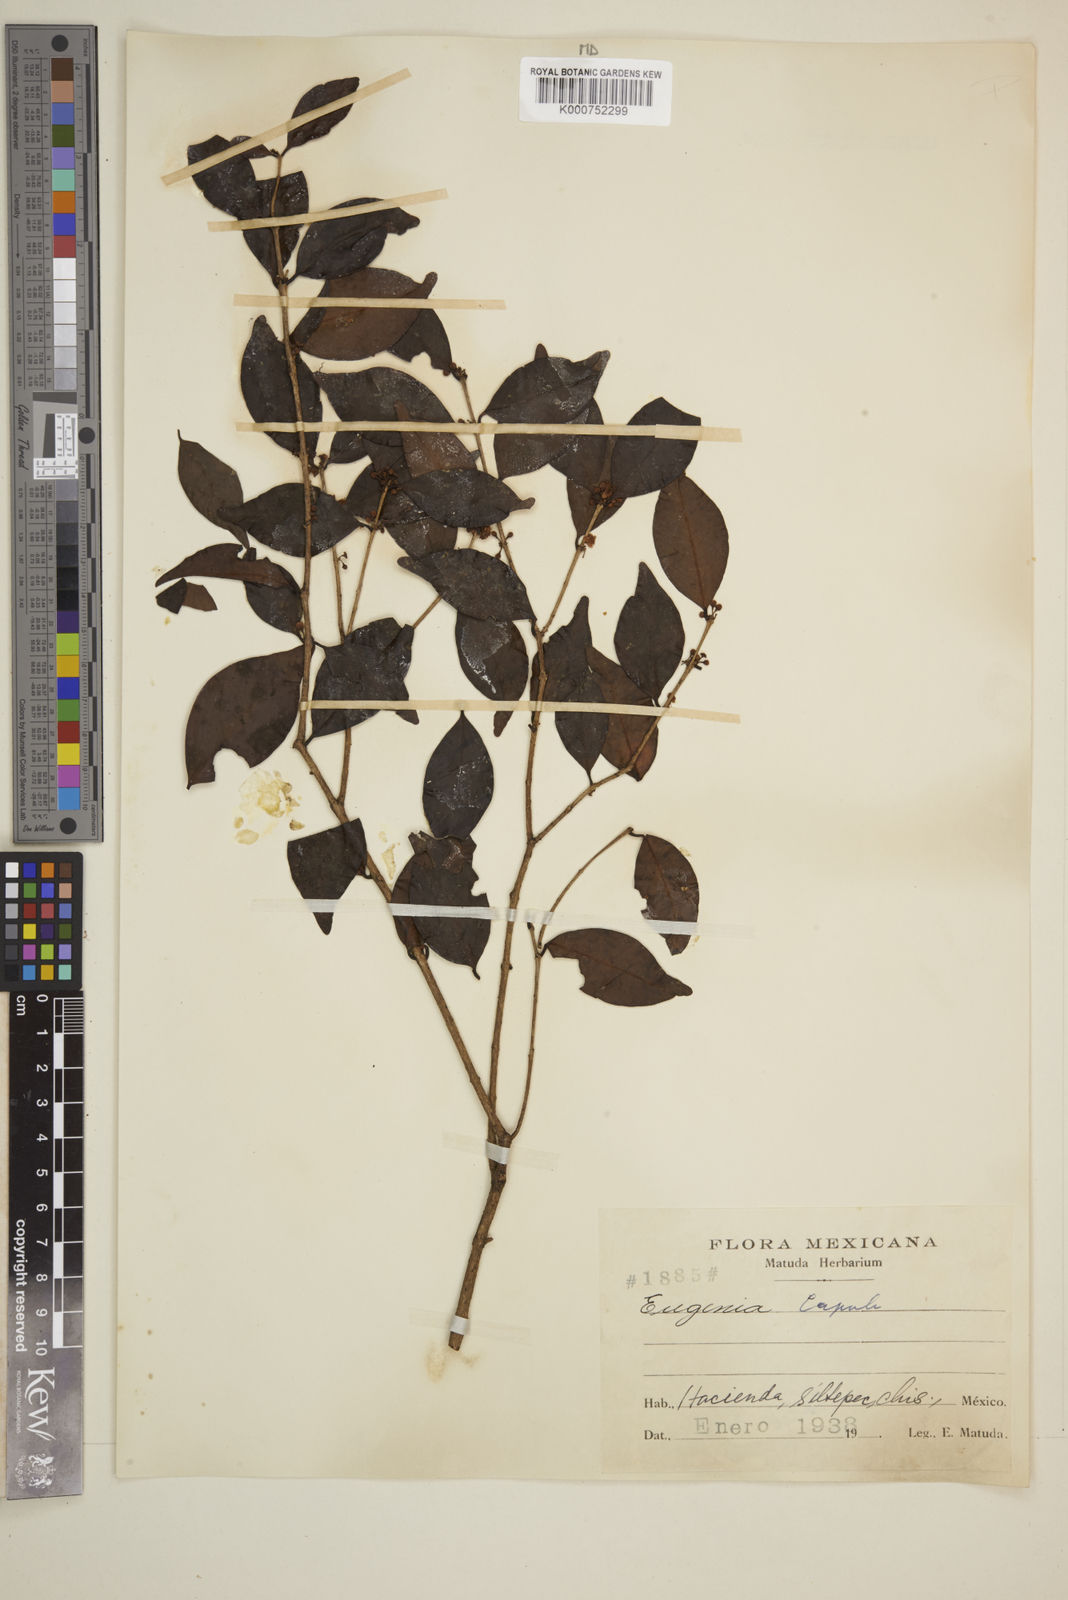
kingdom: Plantae
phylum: Tracheophyta
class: Magnoliopsida
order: Myrtales
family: Myrtaceae
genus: Eugenia
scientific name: Eugenia capuli
